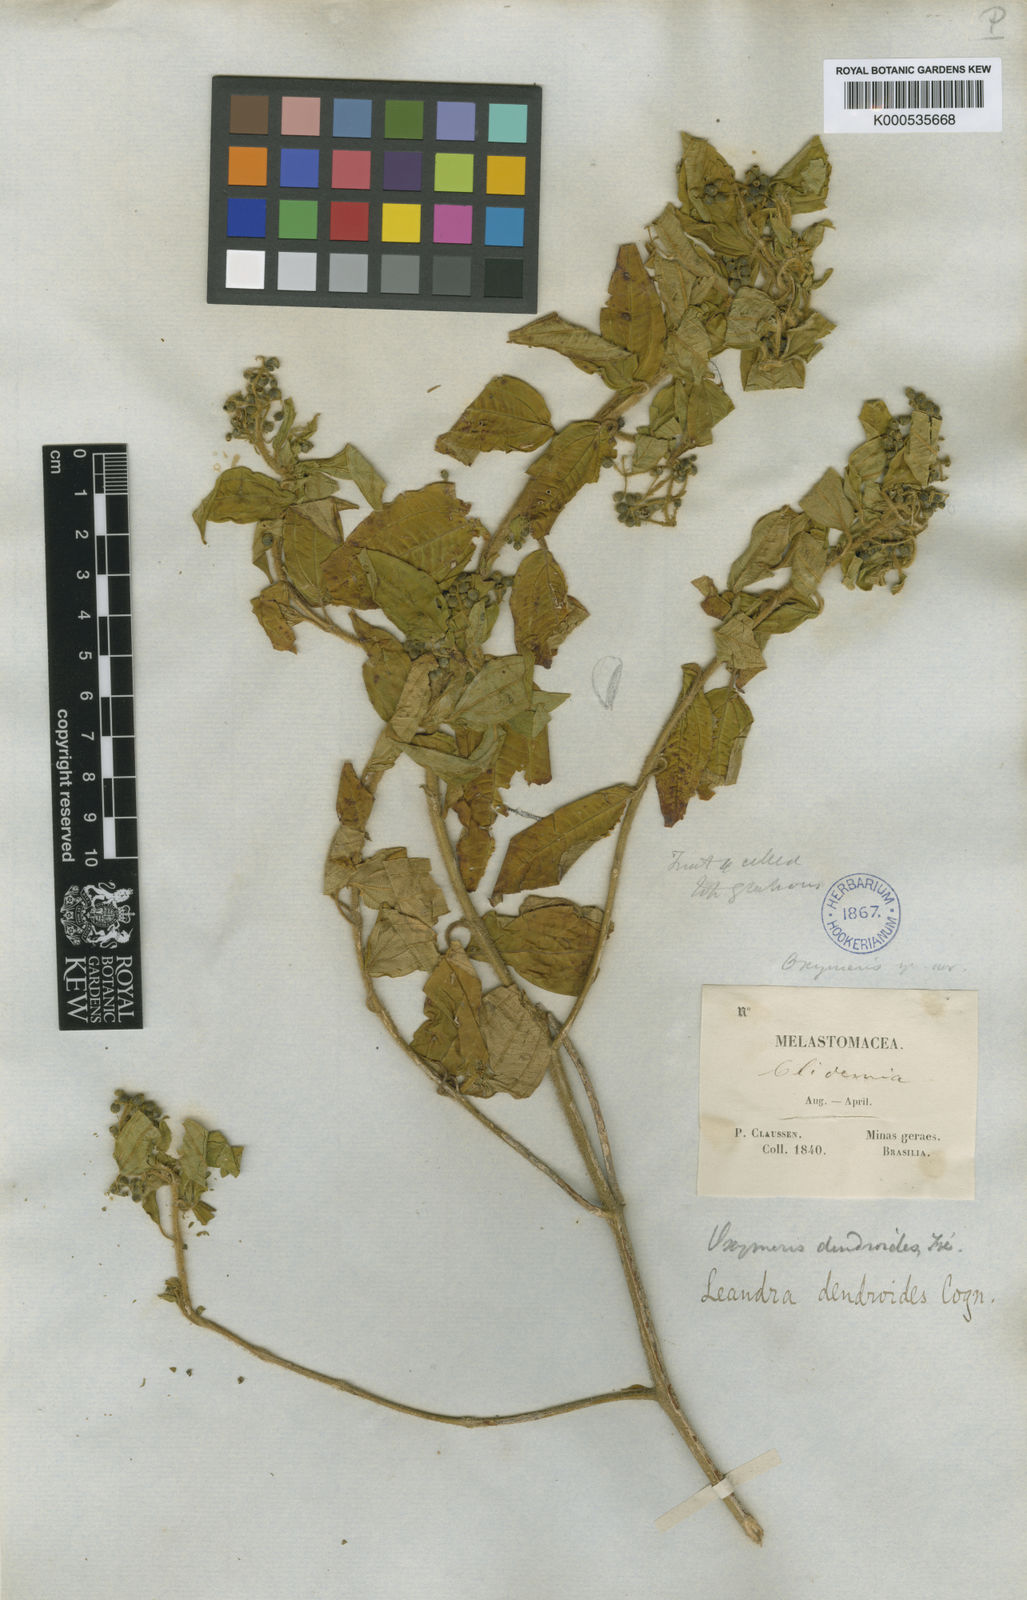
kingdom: Plantae
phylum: Tracheophyta
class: Magnoliopsida
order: Myrtales
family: Melastomataceae
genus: Miconia
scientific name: Miconia dendroides
